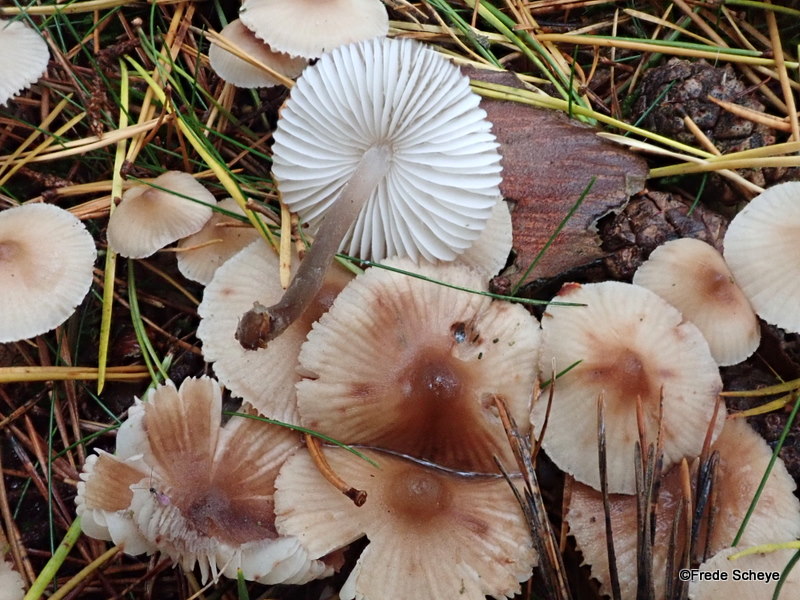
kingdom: Fungi
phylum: Basidiomycota
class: Agaricomycetes
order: Agaricales
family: Mycenaceae
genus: Mycena
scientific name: Mycena zephirus
